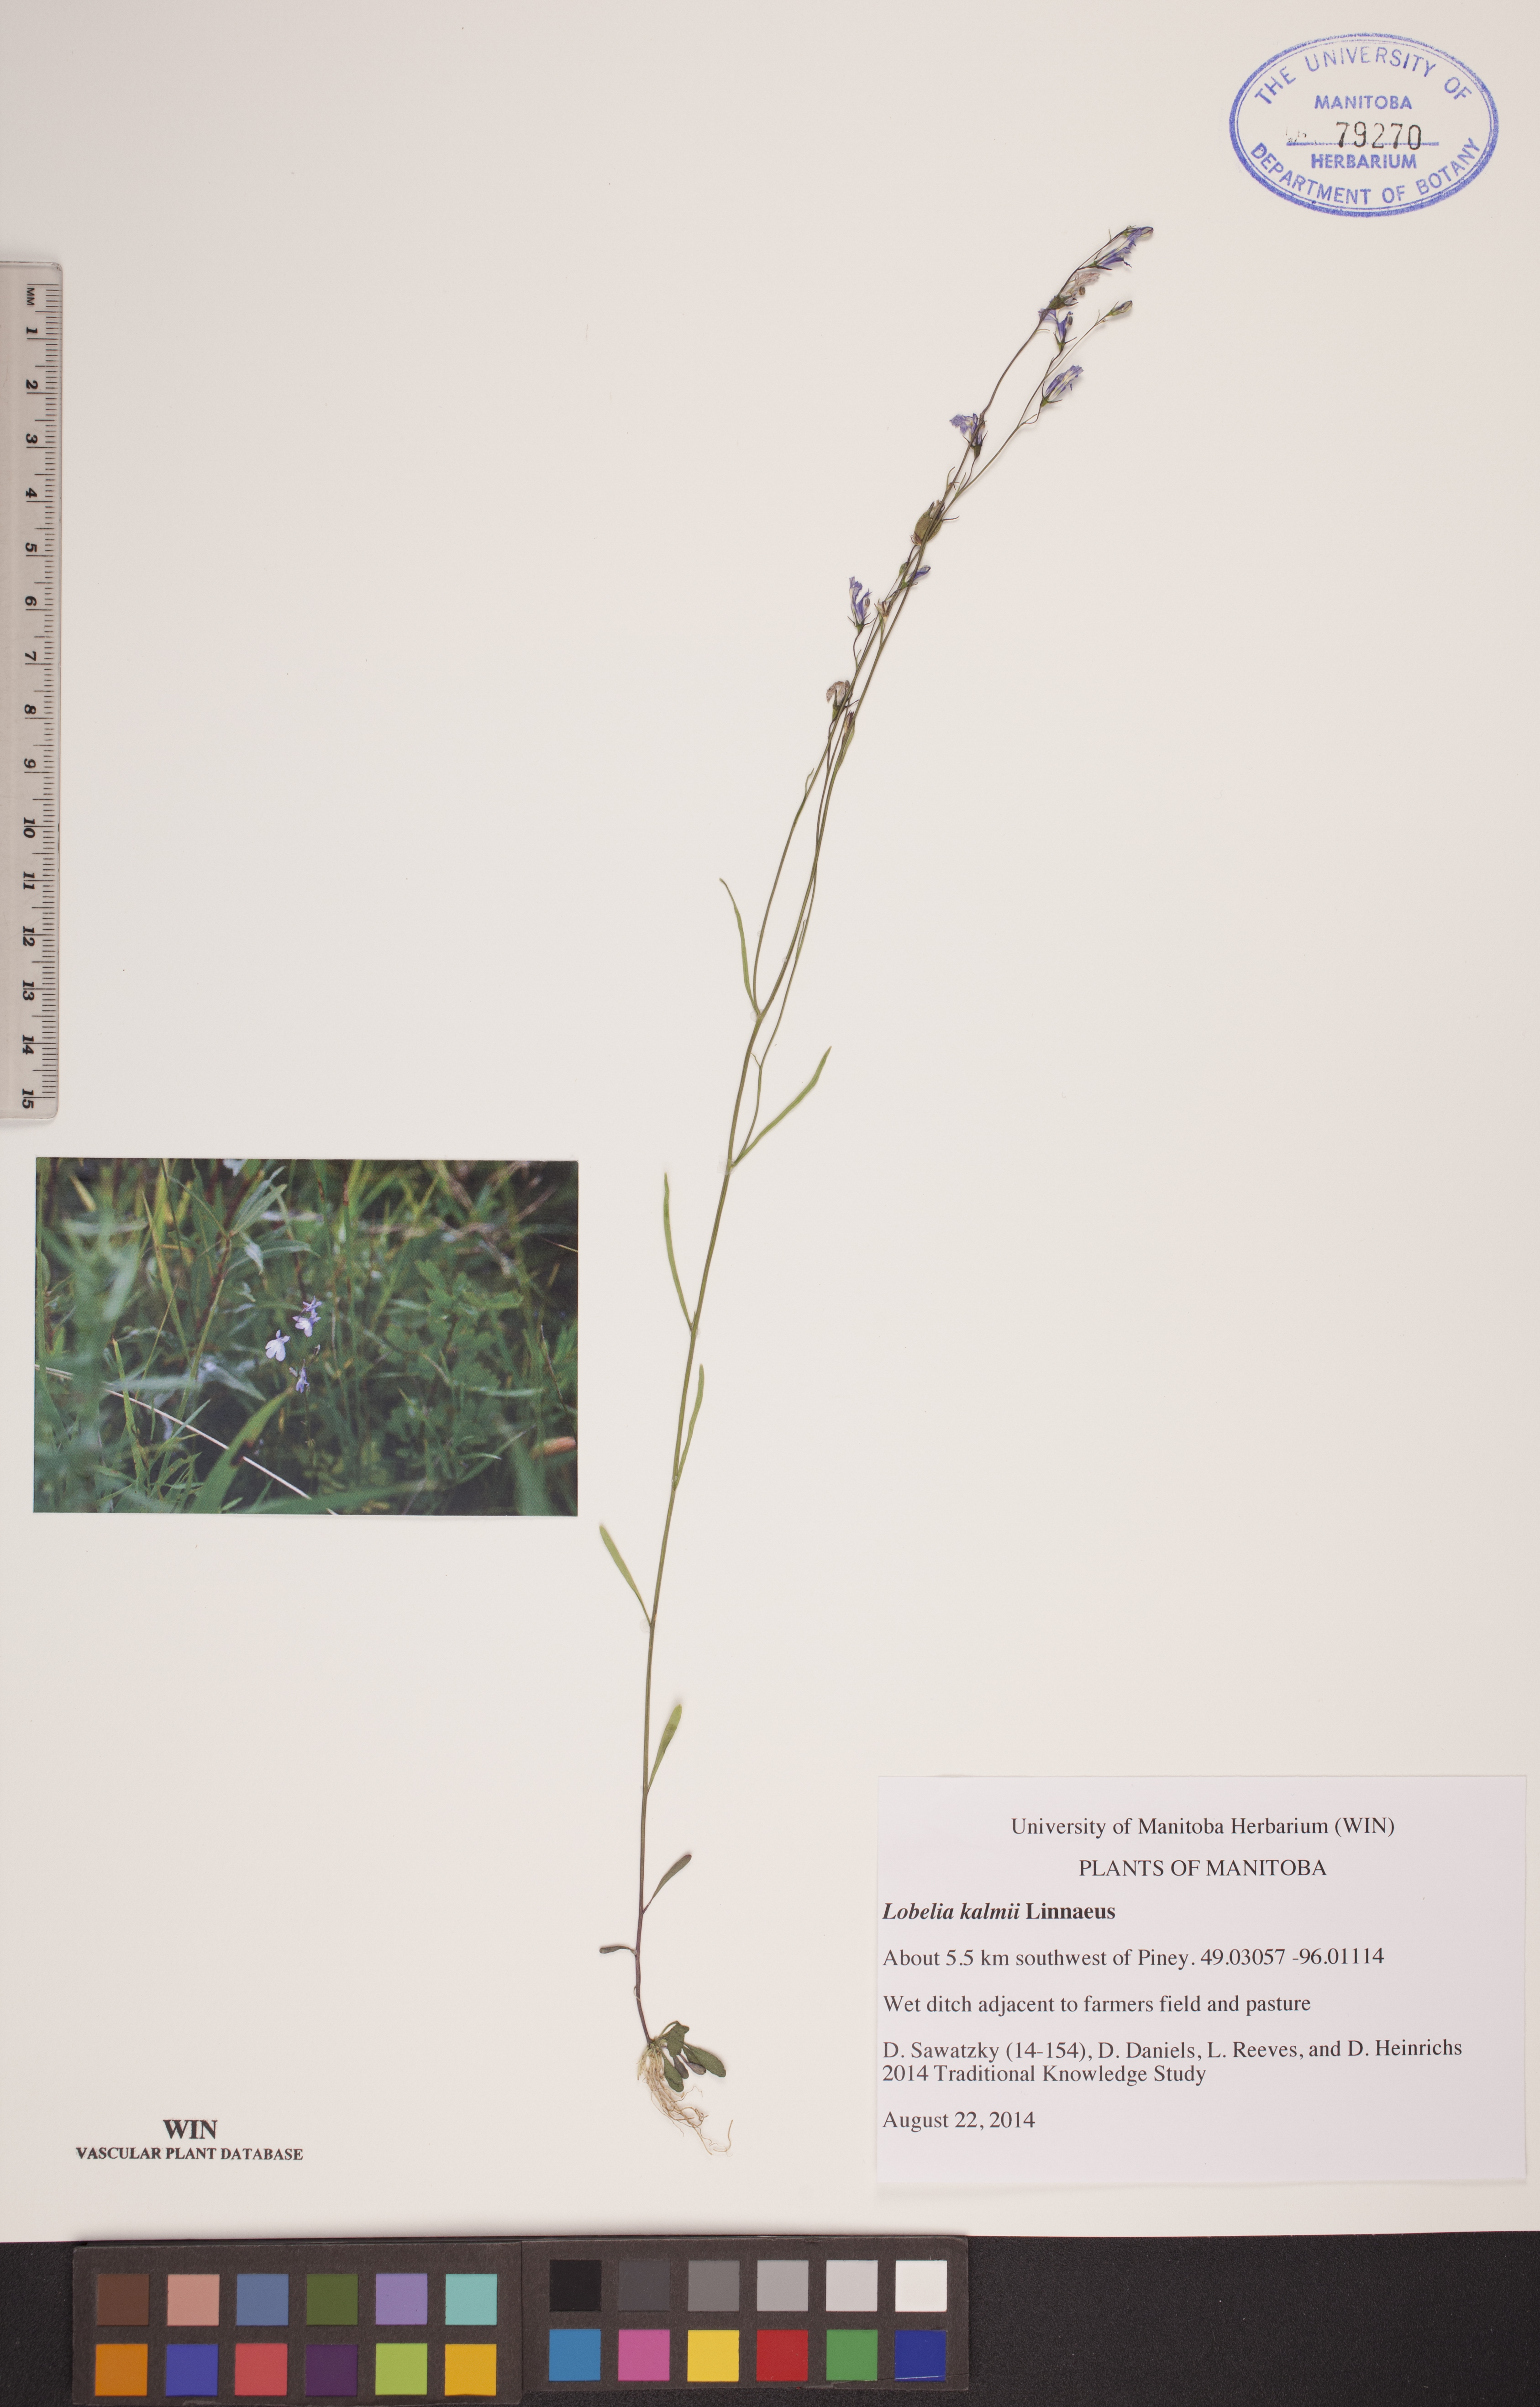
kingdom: Plantae
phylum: Tracheophyta
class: Magnoliopsida
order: Asterales
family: Campanulaceae
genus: Lobelia
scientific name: Lobelia kalmii
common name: Kalm's lobelia
